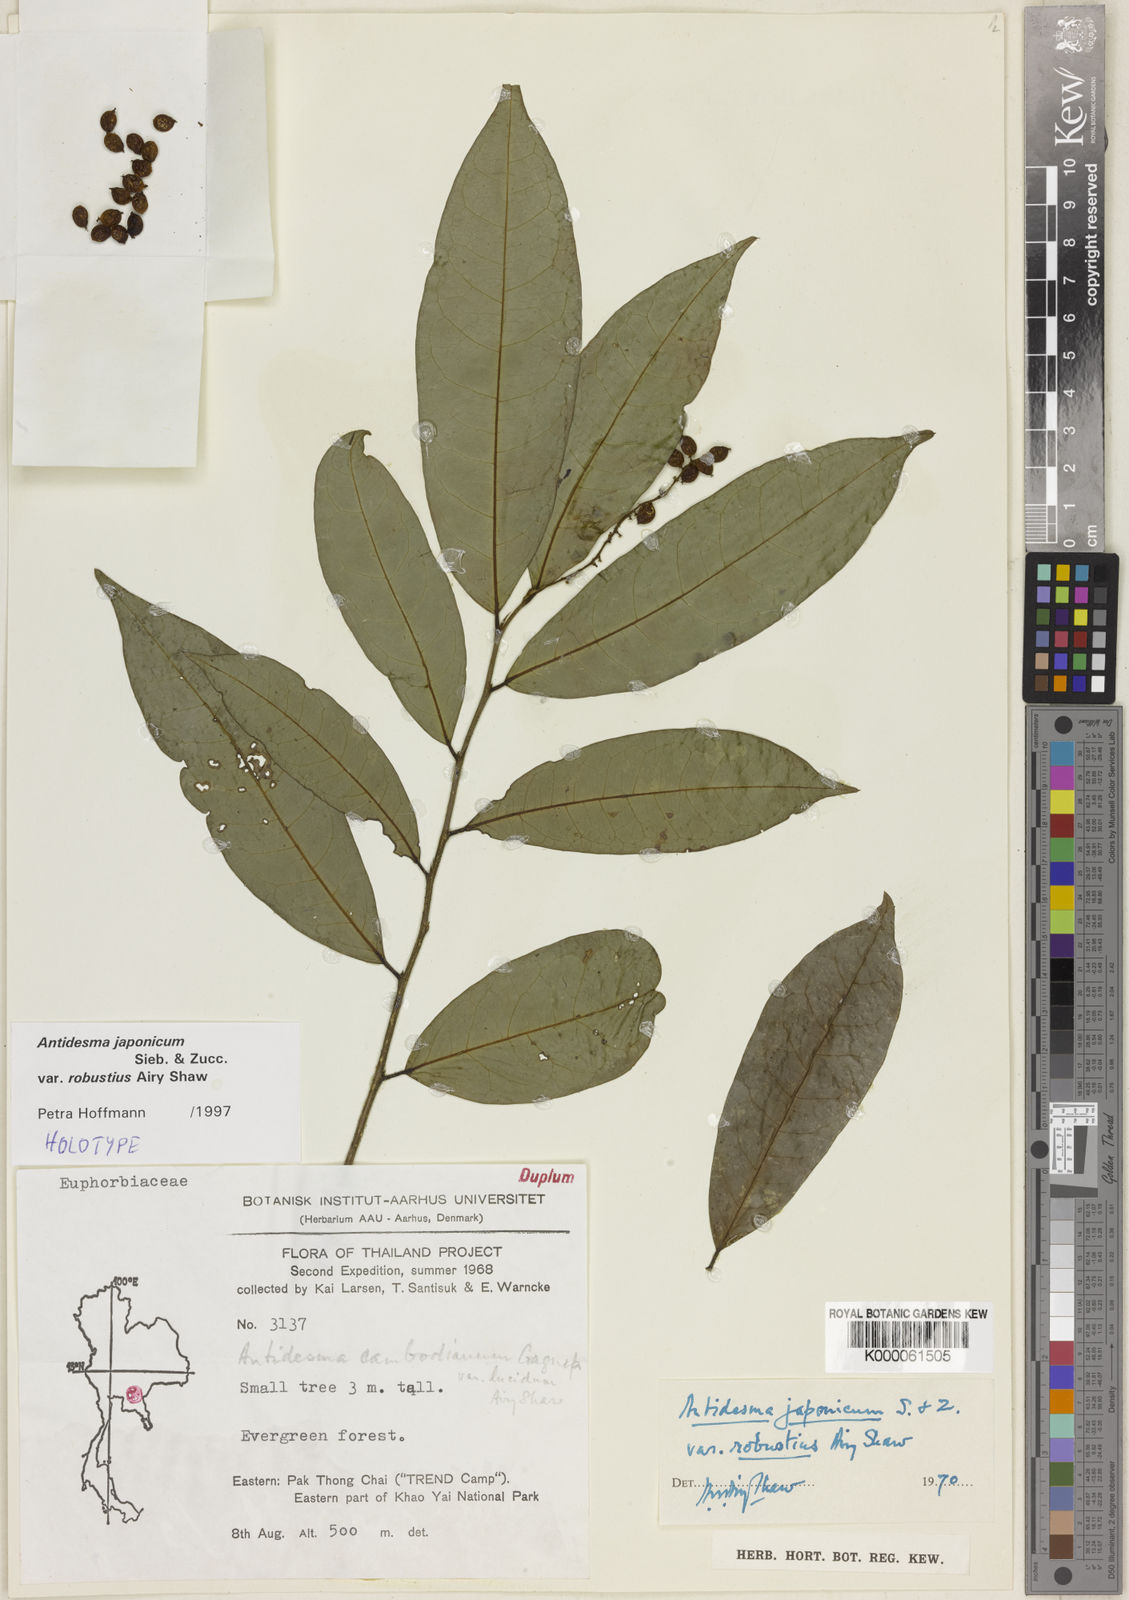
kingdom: Plantae
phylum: Tracheophyta
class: Magnoliopsida
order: Malpighiales
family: Phyllanthaceae
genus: Antidesma
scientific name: Antidesma japonicum
